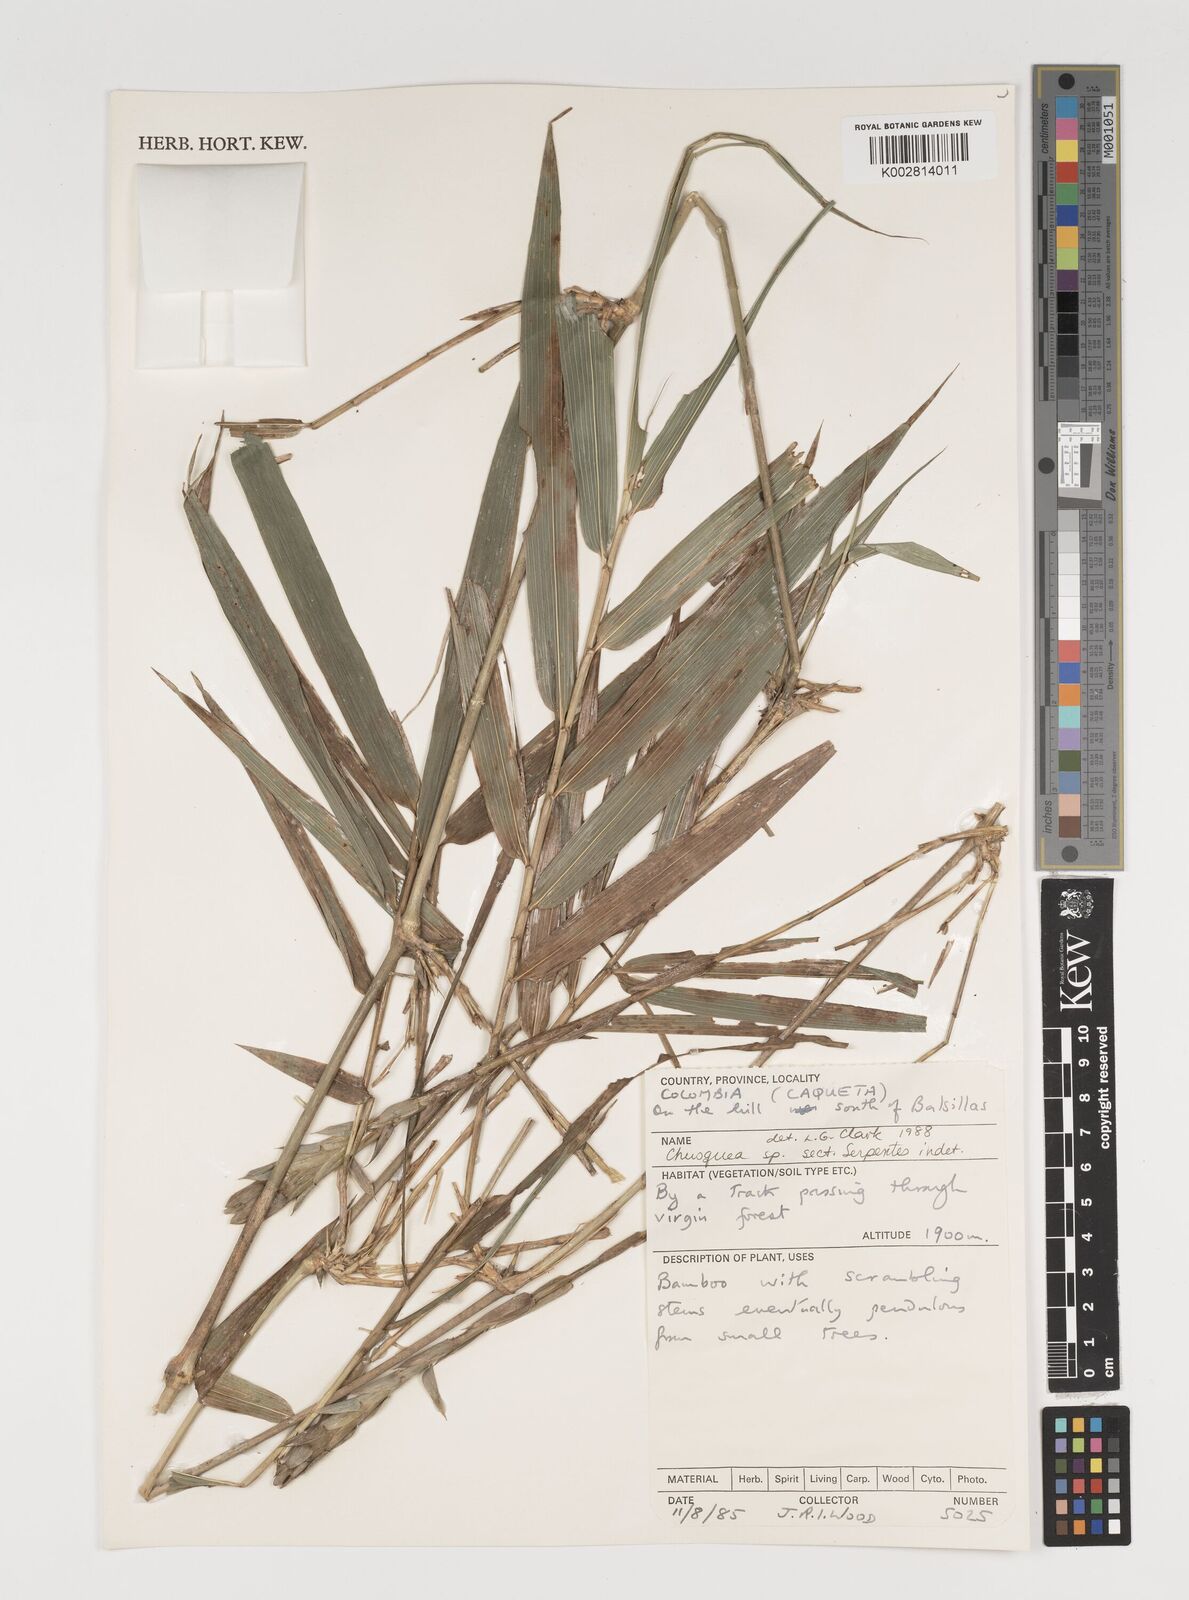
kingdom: Plantae
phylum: Tracheophyta
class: Liliopsida
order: Poales
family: Poaceae
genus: Chusquea
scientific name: Chusquea
